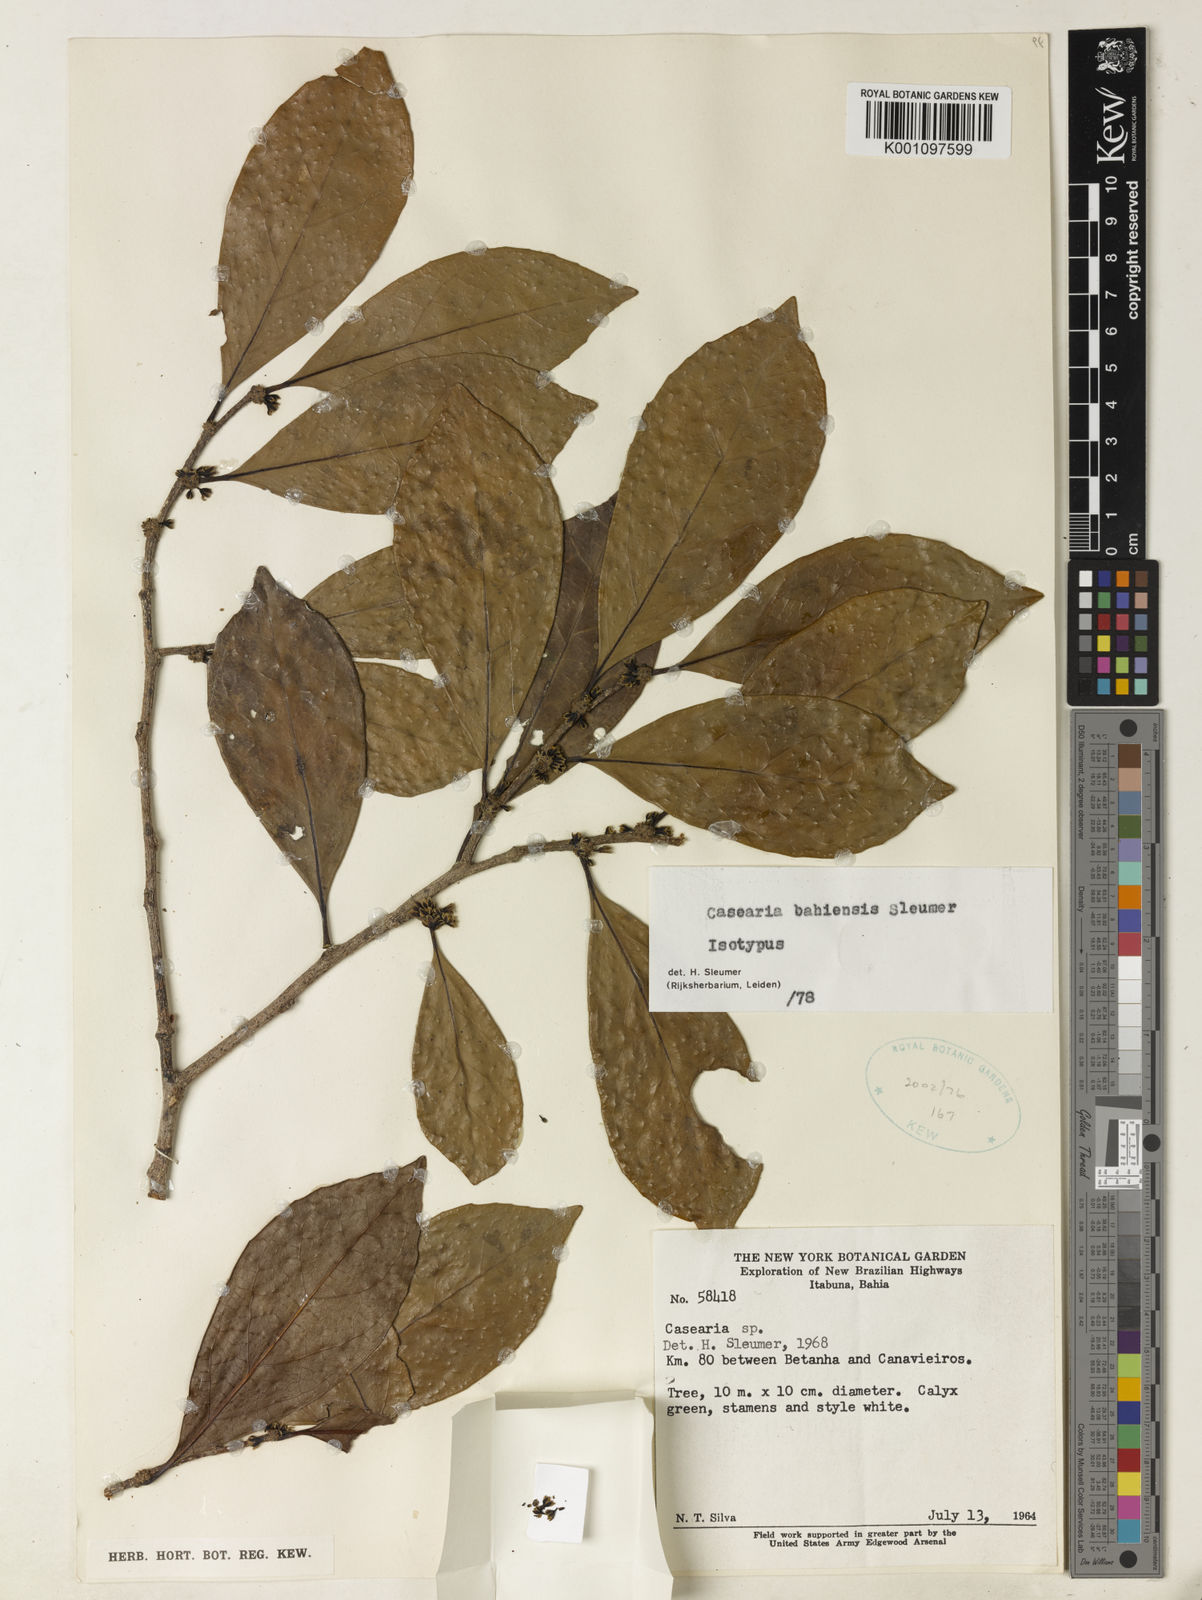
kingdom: Plantae
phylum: Tracheophyta
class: Magnoliopsida
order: Malpighiales
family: Salicaceae
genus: Casearia
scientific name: Casearia bahiensis
